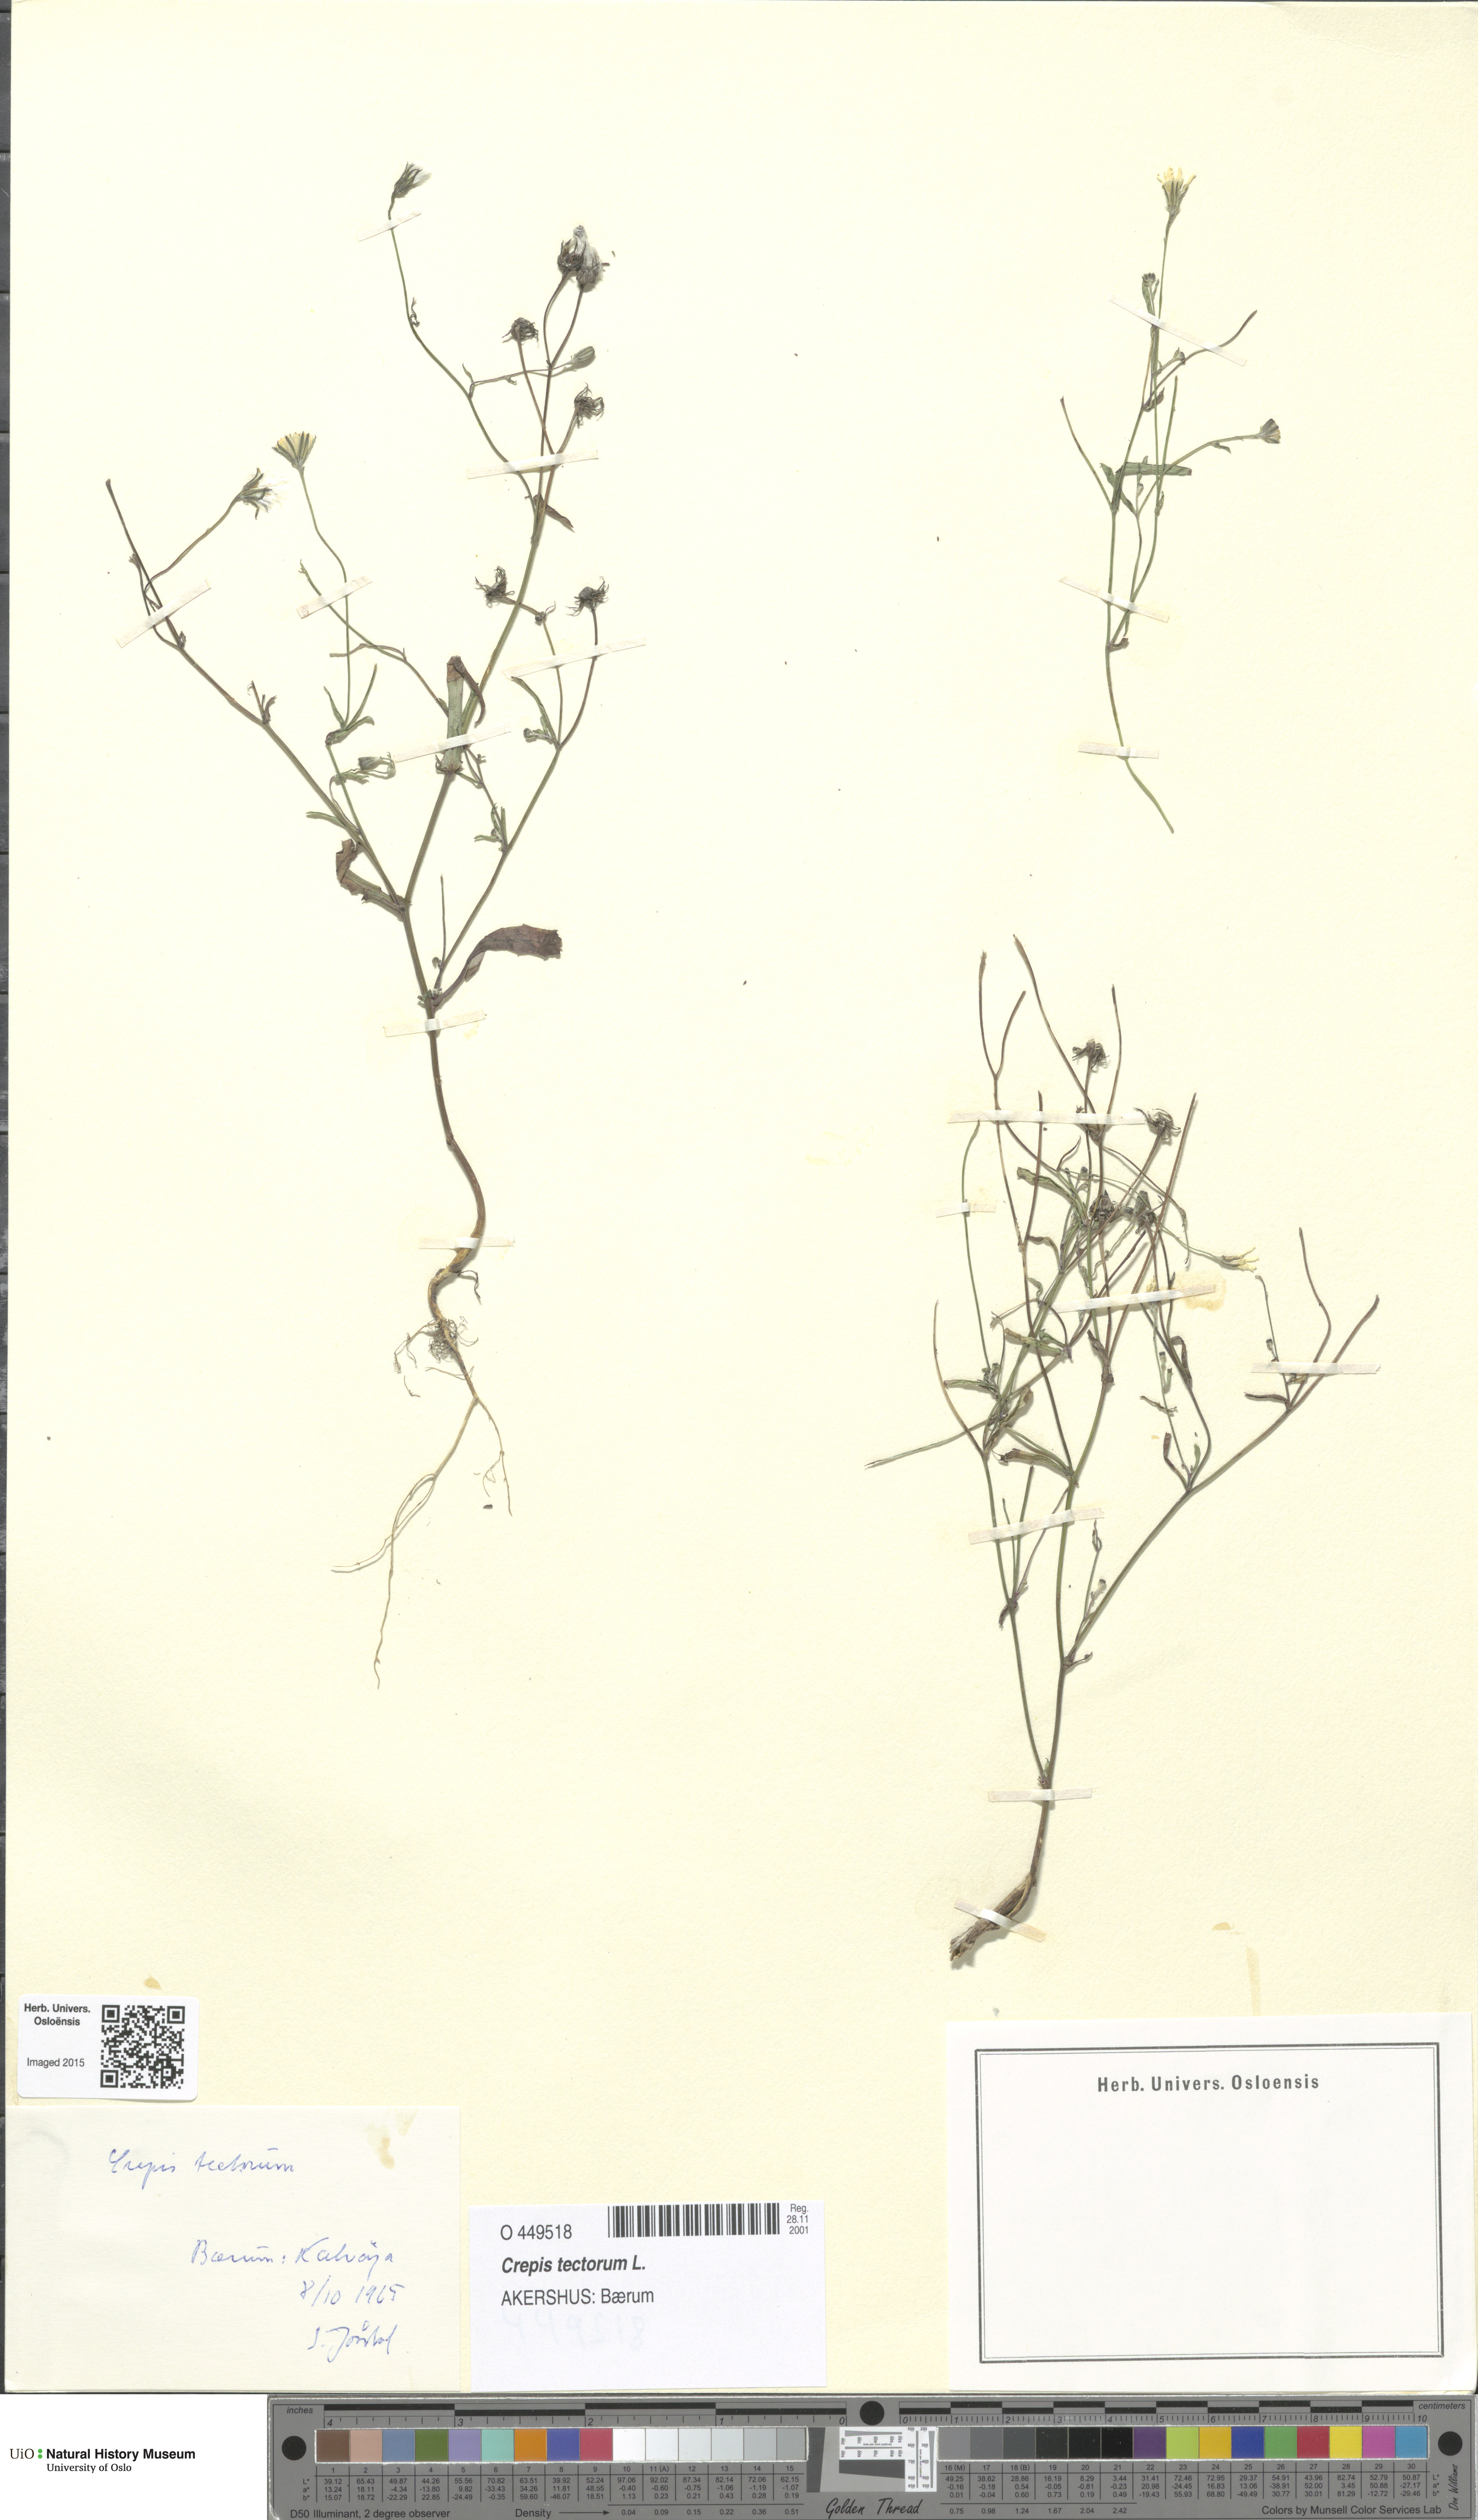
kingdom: Plantae
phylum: Tracheophyta
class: Magnoliopsida
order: Asterales
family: Asteraceae
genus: Crepis
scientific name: Crepis tectorum
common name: Narrow-leaved hawk's-beard
